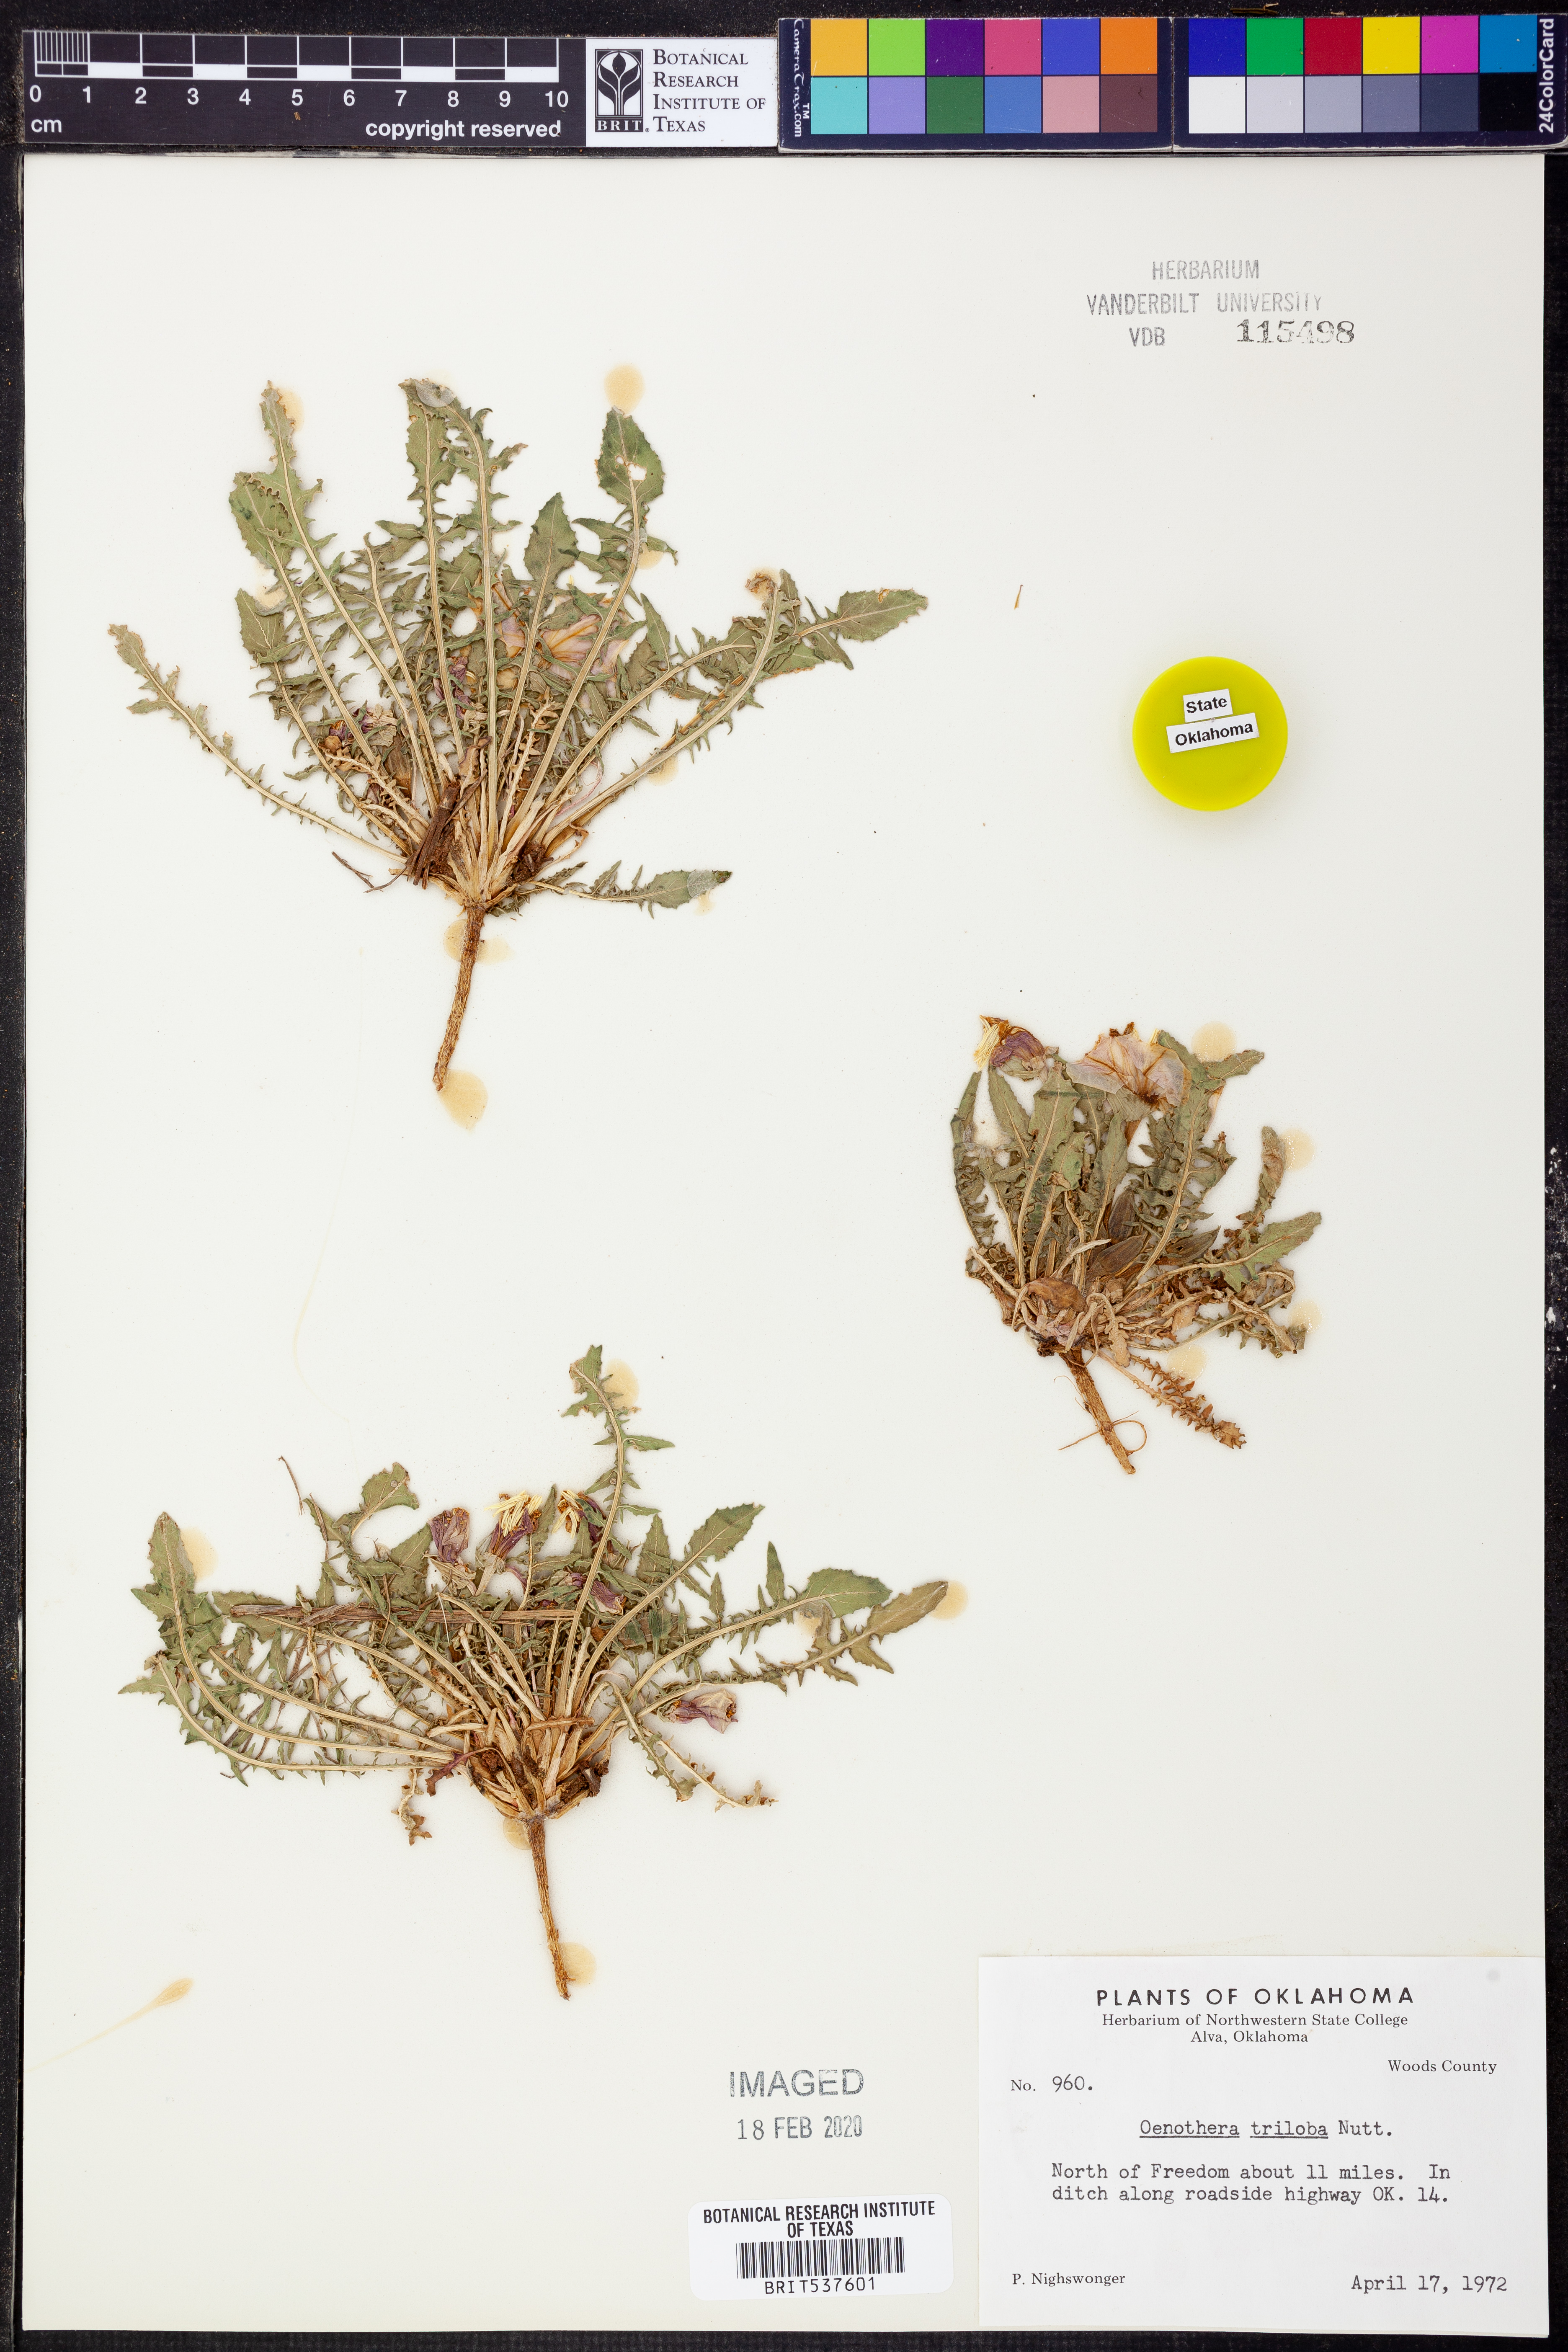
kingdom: Plantae
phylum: Tracheophyta
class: Magnoliopsida
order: Myrtales
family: Onagraceae
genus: Oenothera
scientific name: Oenothera triloba
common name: Sessile evening-primrose
